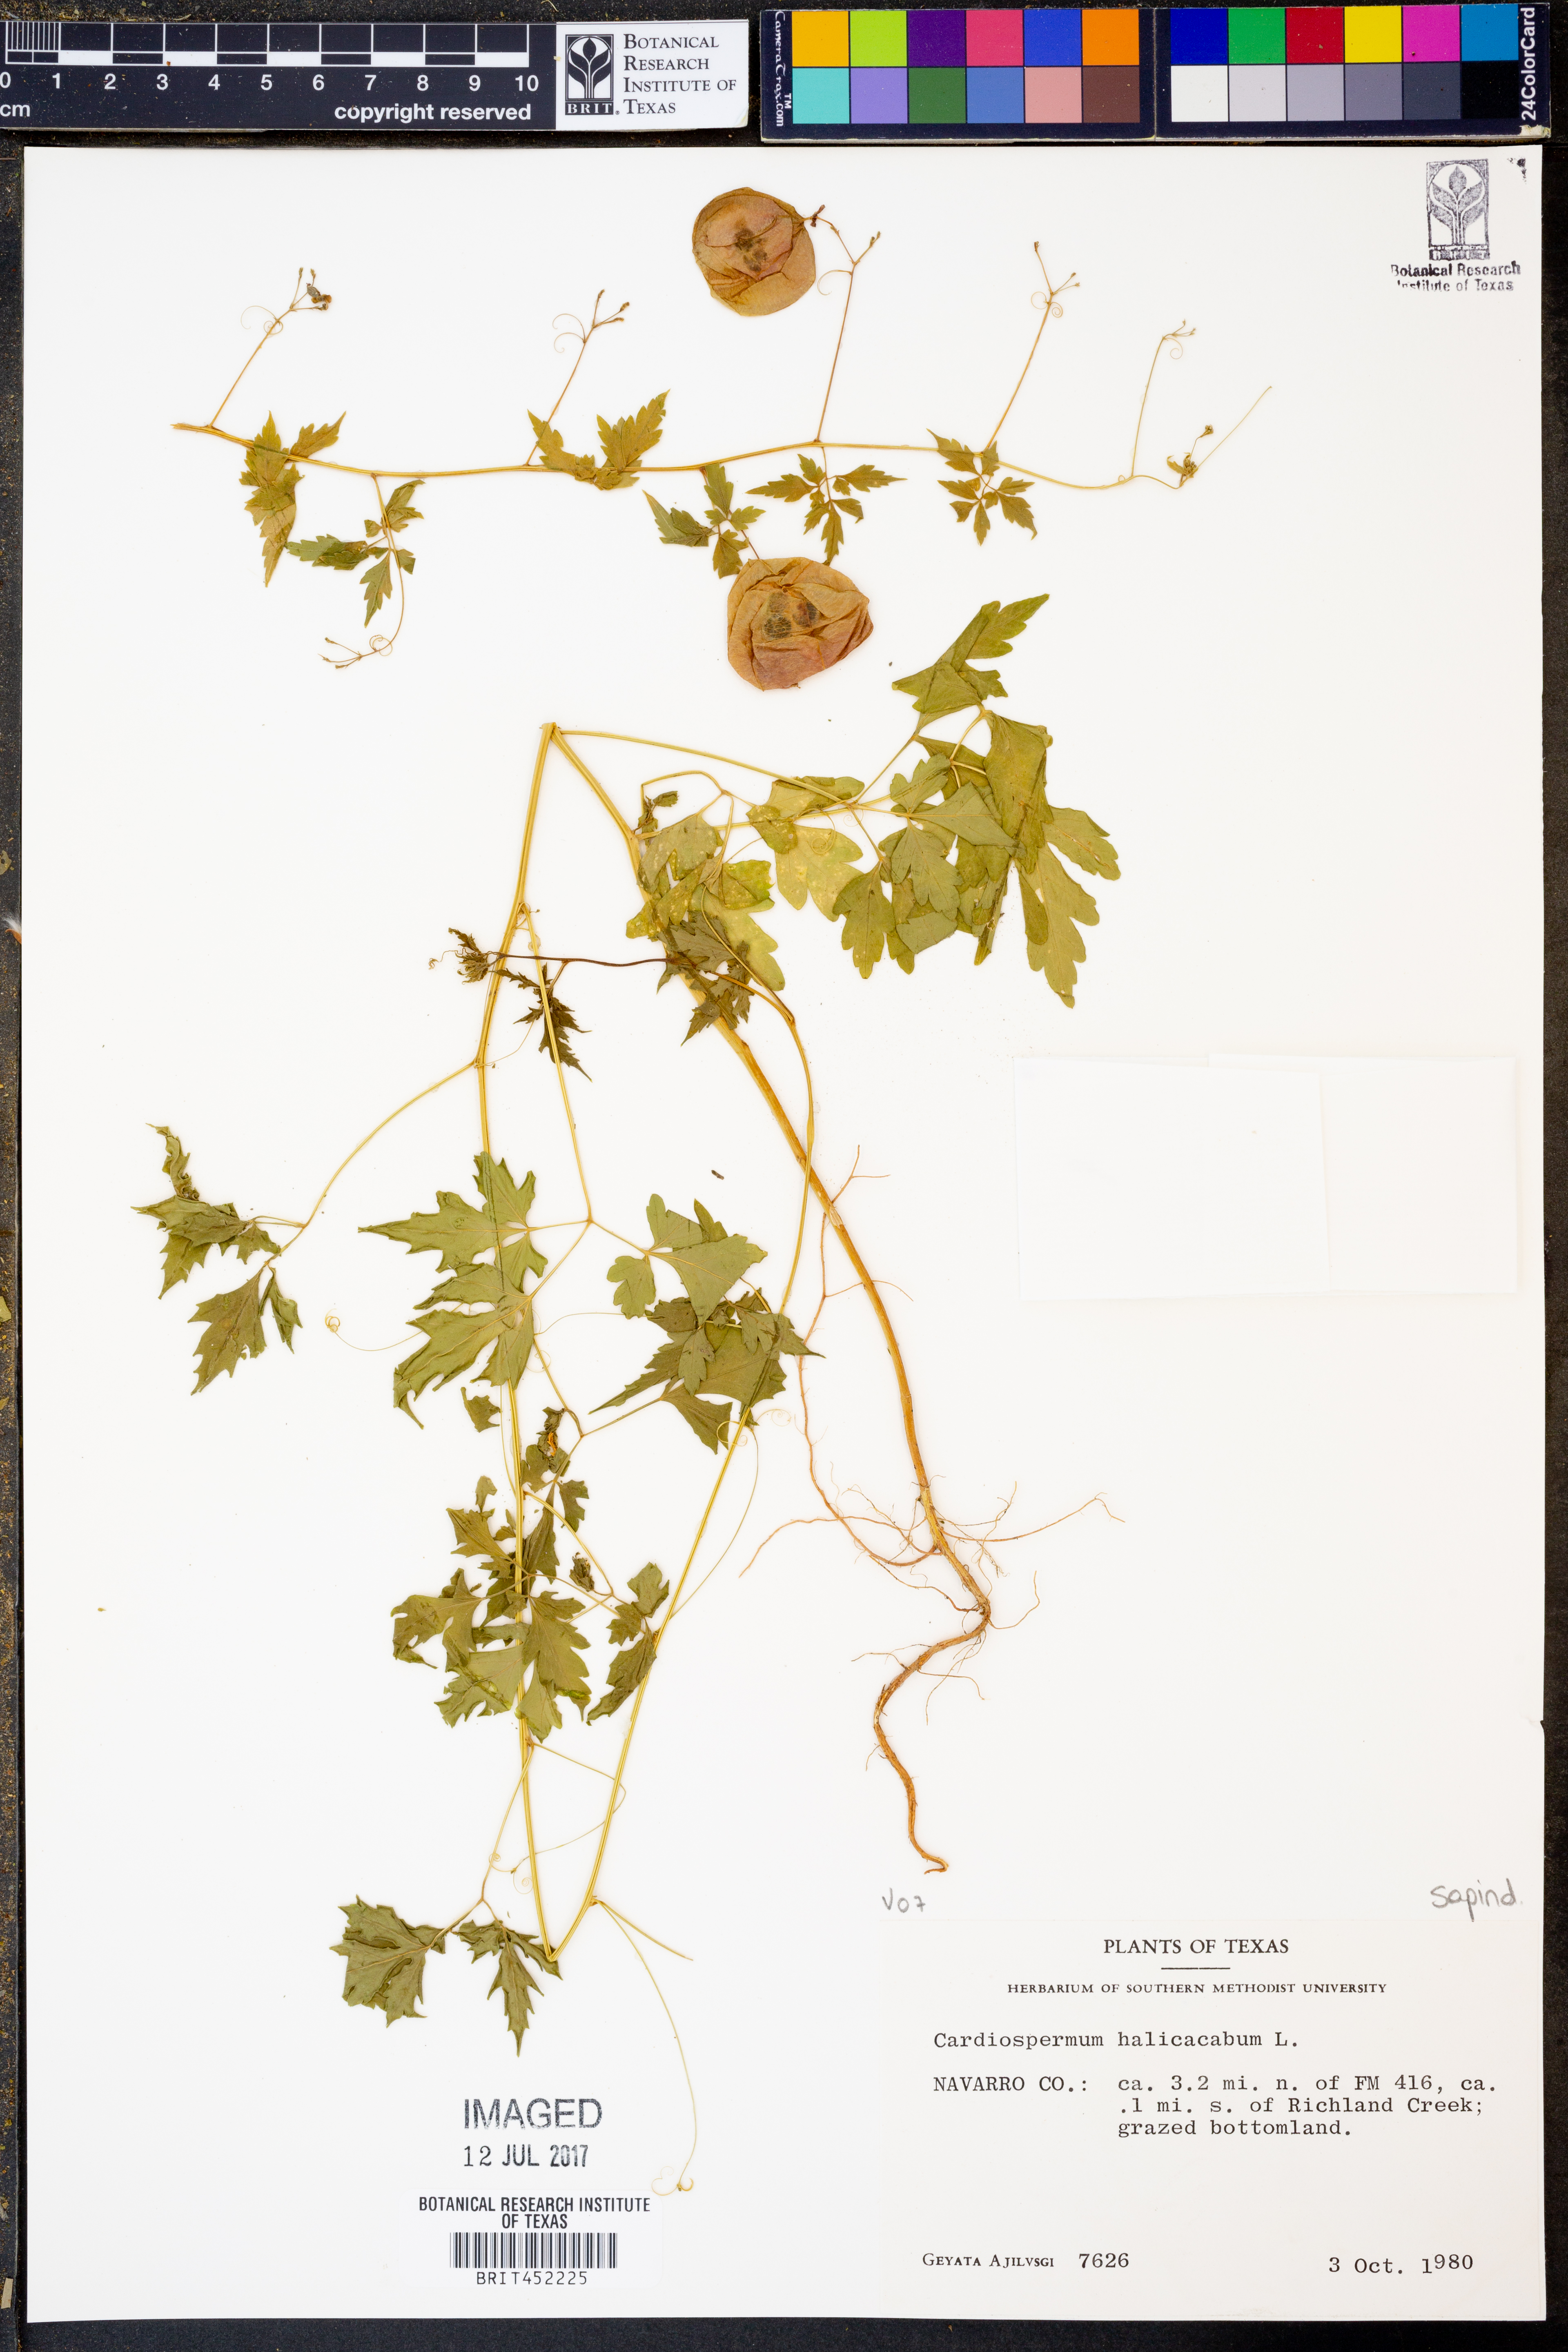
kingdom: Plantae
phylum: Tracheophyta
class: Magnoliopsida
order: Sapindales
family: Sapindaceae
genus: Cardiospermum
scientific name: Cardiospermum halicacabum
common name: Balloon vine
